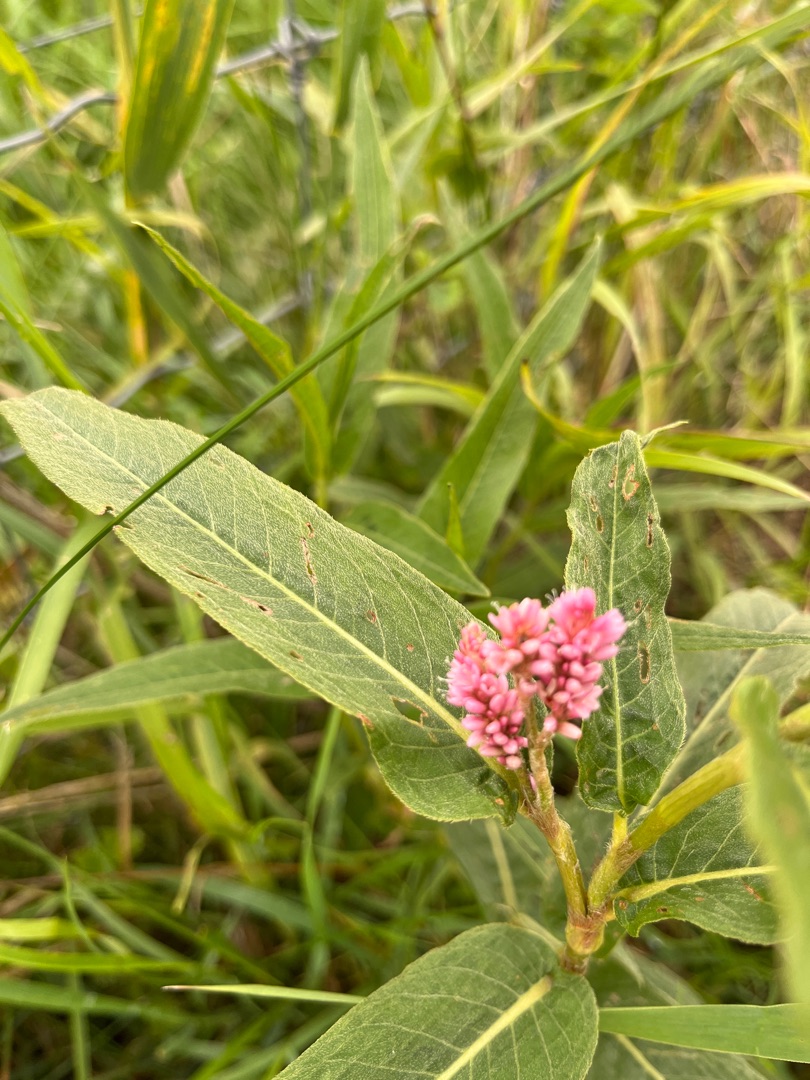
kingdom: Plantae
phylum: Tracheophyta
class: Magnoliopsida
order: Caryophyllales
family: Polygonaceae
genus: Persicaria
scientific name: Persicaria amphibia
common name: Vand-pileurt
